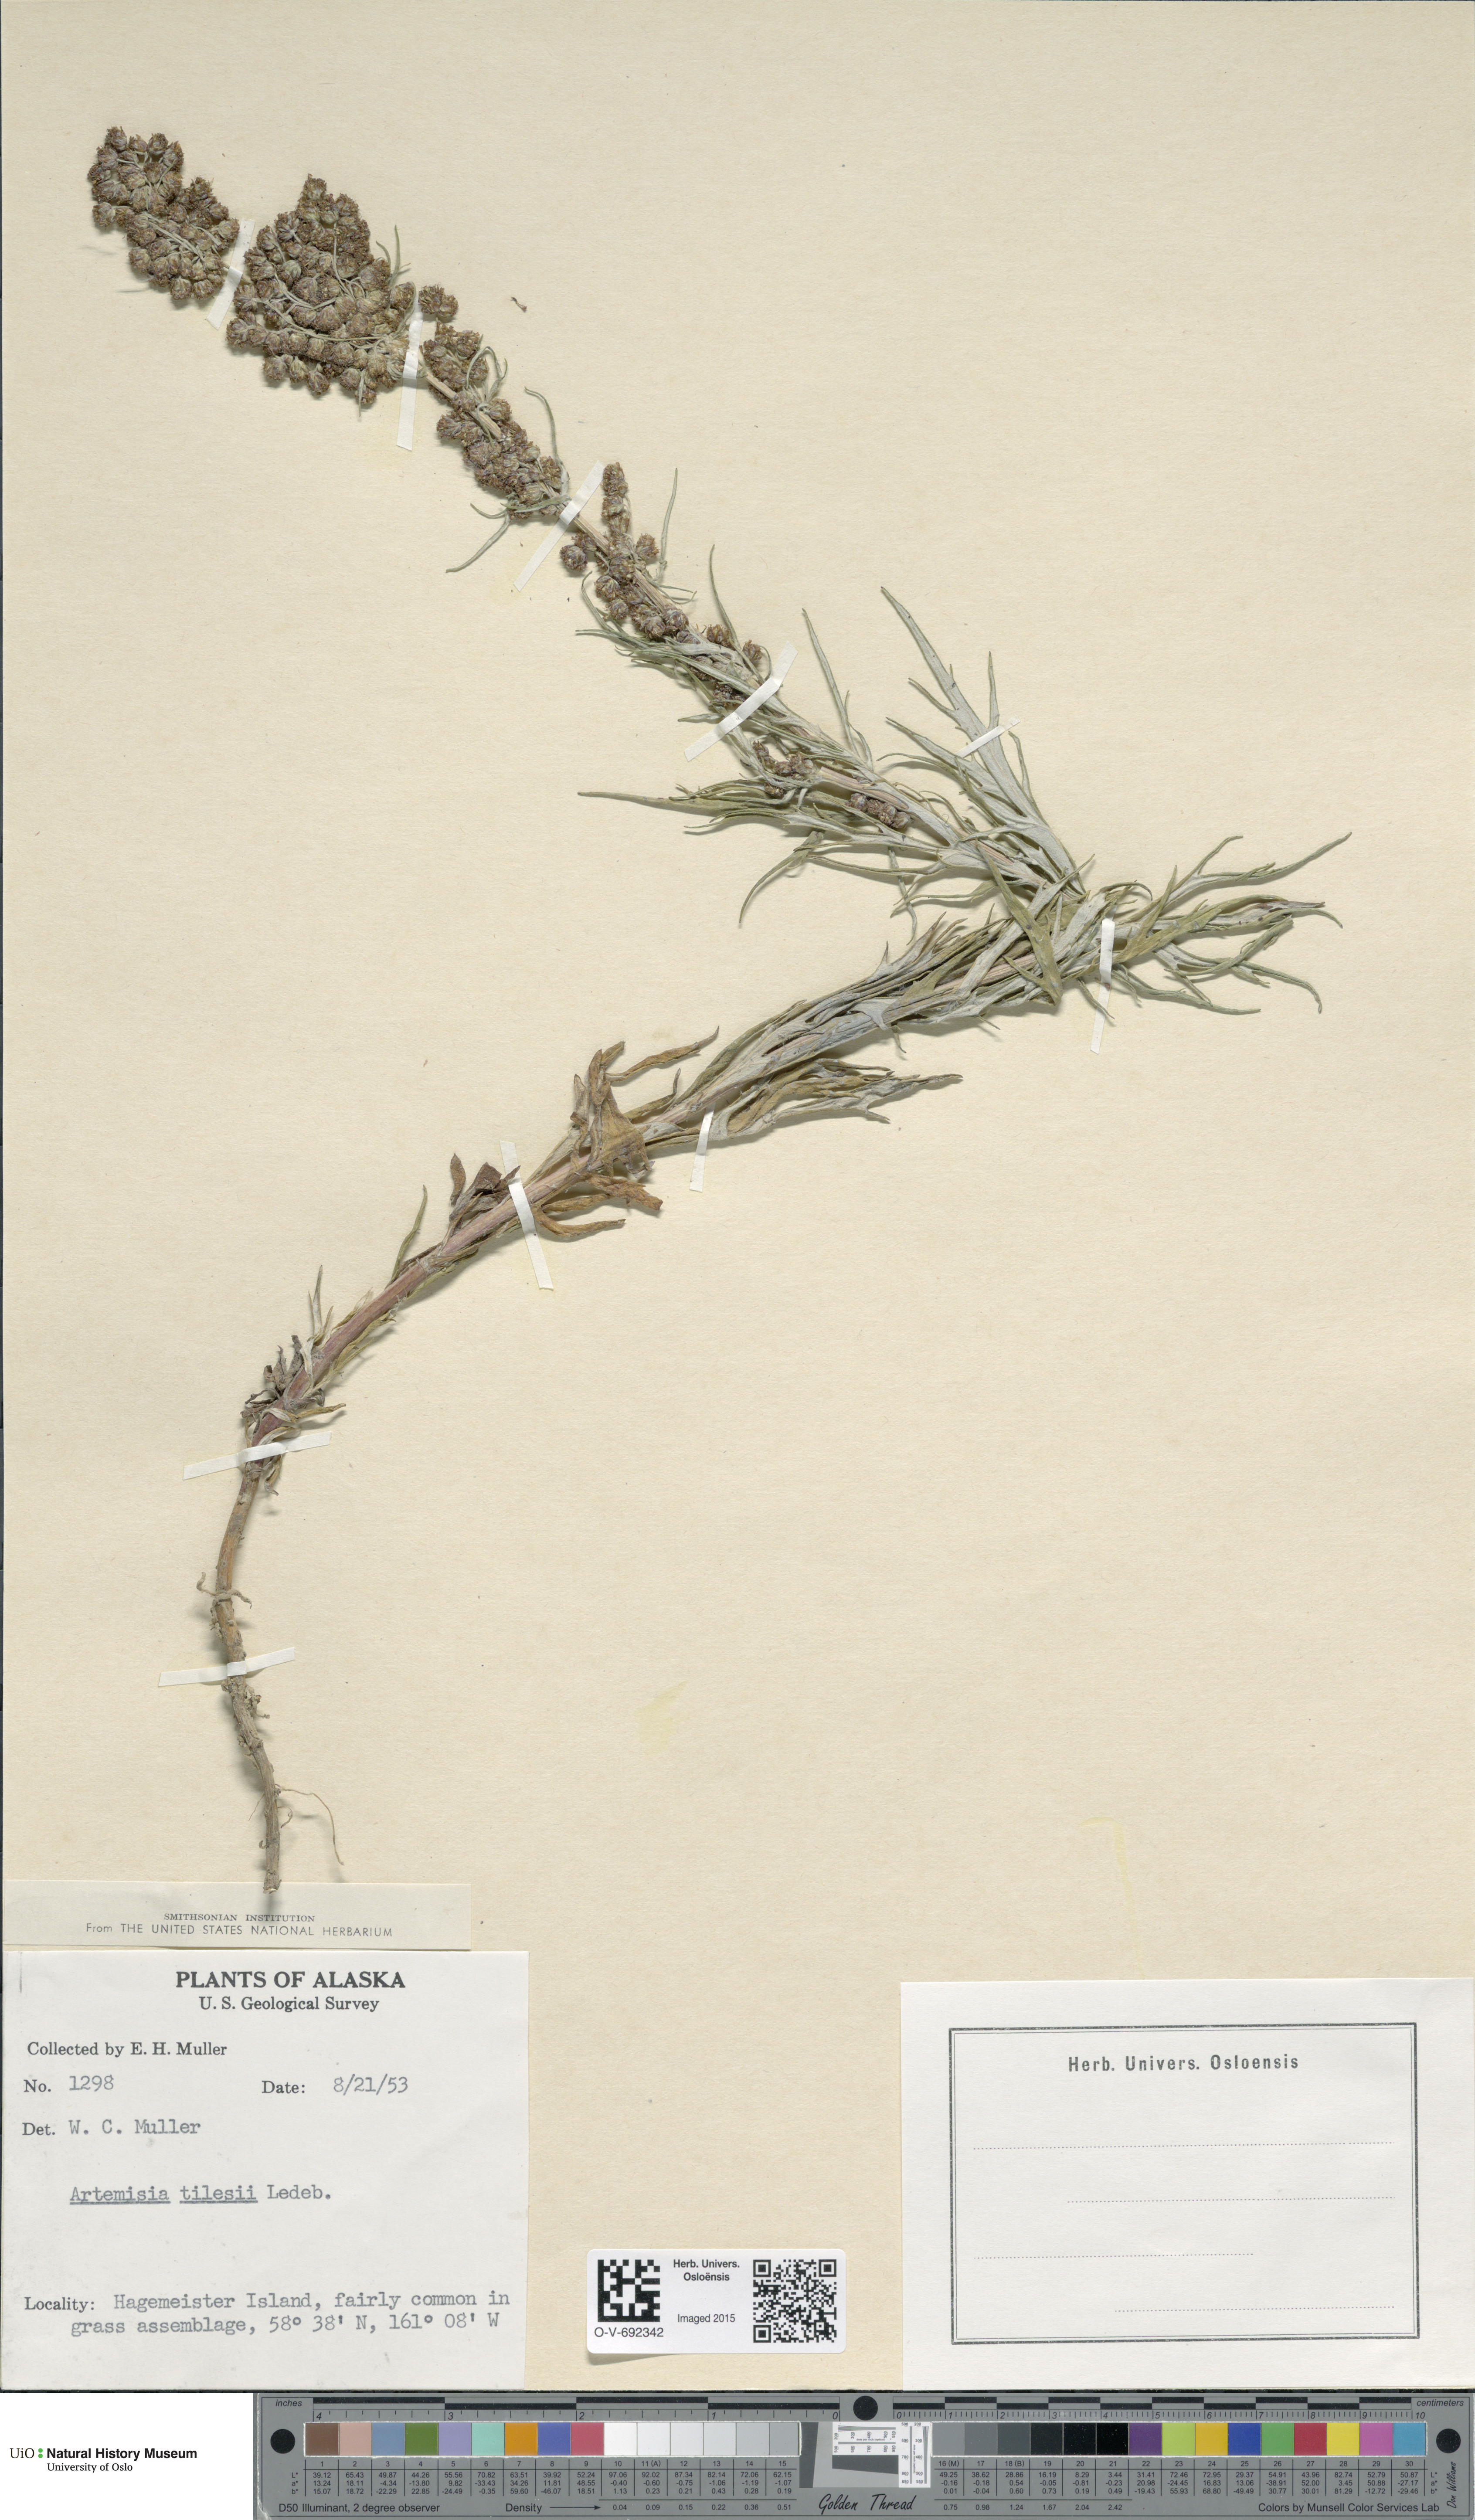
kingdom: Plantae
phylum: Tracheophyta
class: Magnoliopsida
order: Asterales
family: Asteraceae
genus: Artemisia
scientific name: Artemisia tilesii
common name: Aleutian mugwort
